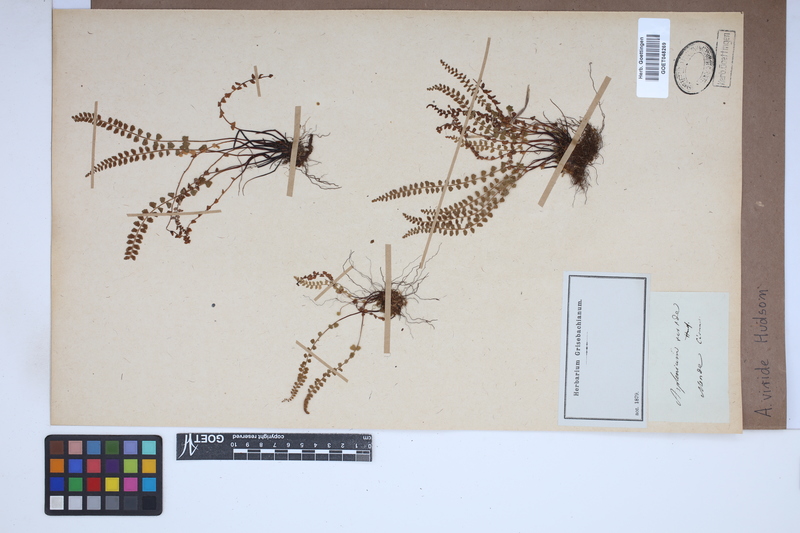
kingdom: Plantae
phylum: Tracheophyta
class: Polypodiopsida
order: Polypodiales
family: Aspleniaceae
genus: Asplenium
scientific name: Asplenium viride
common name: Green spleenwort
